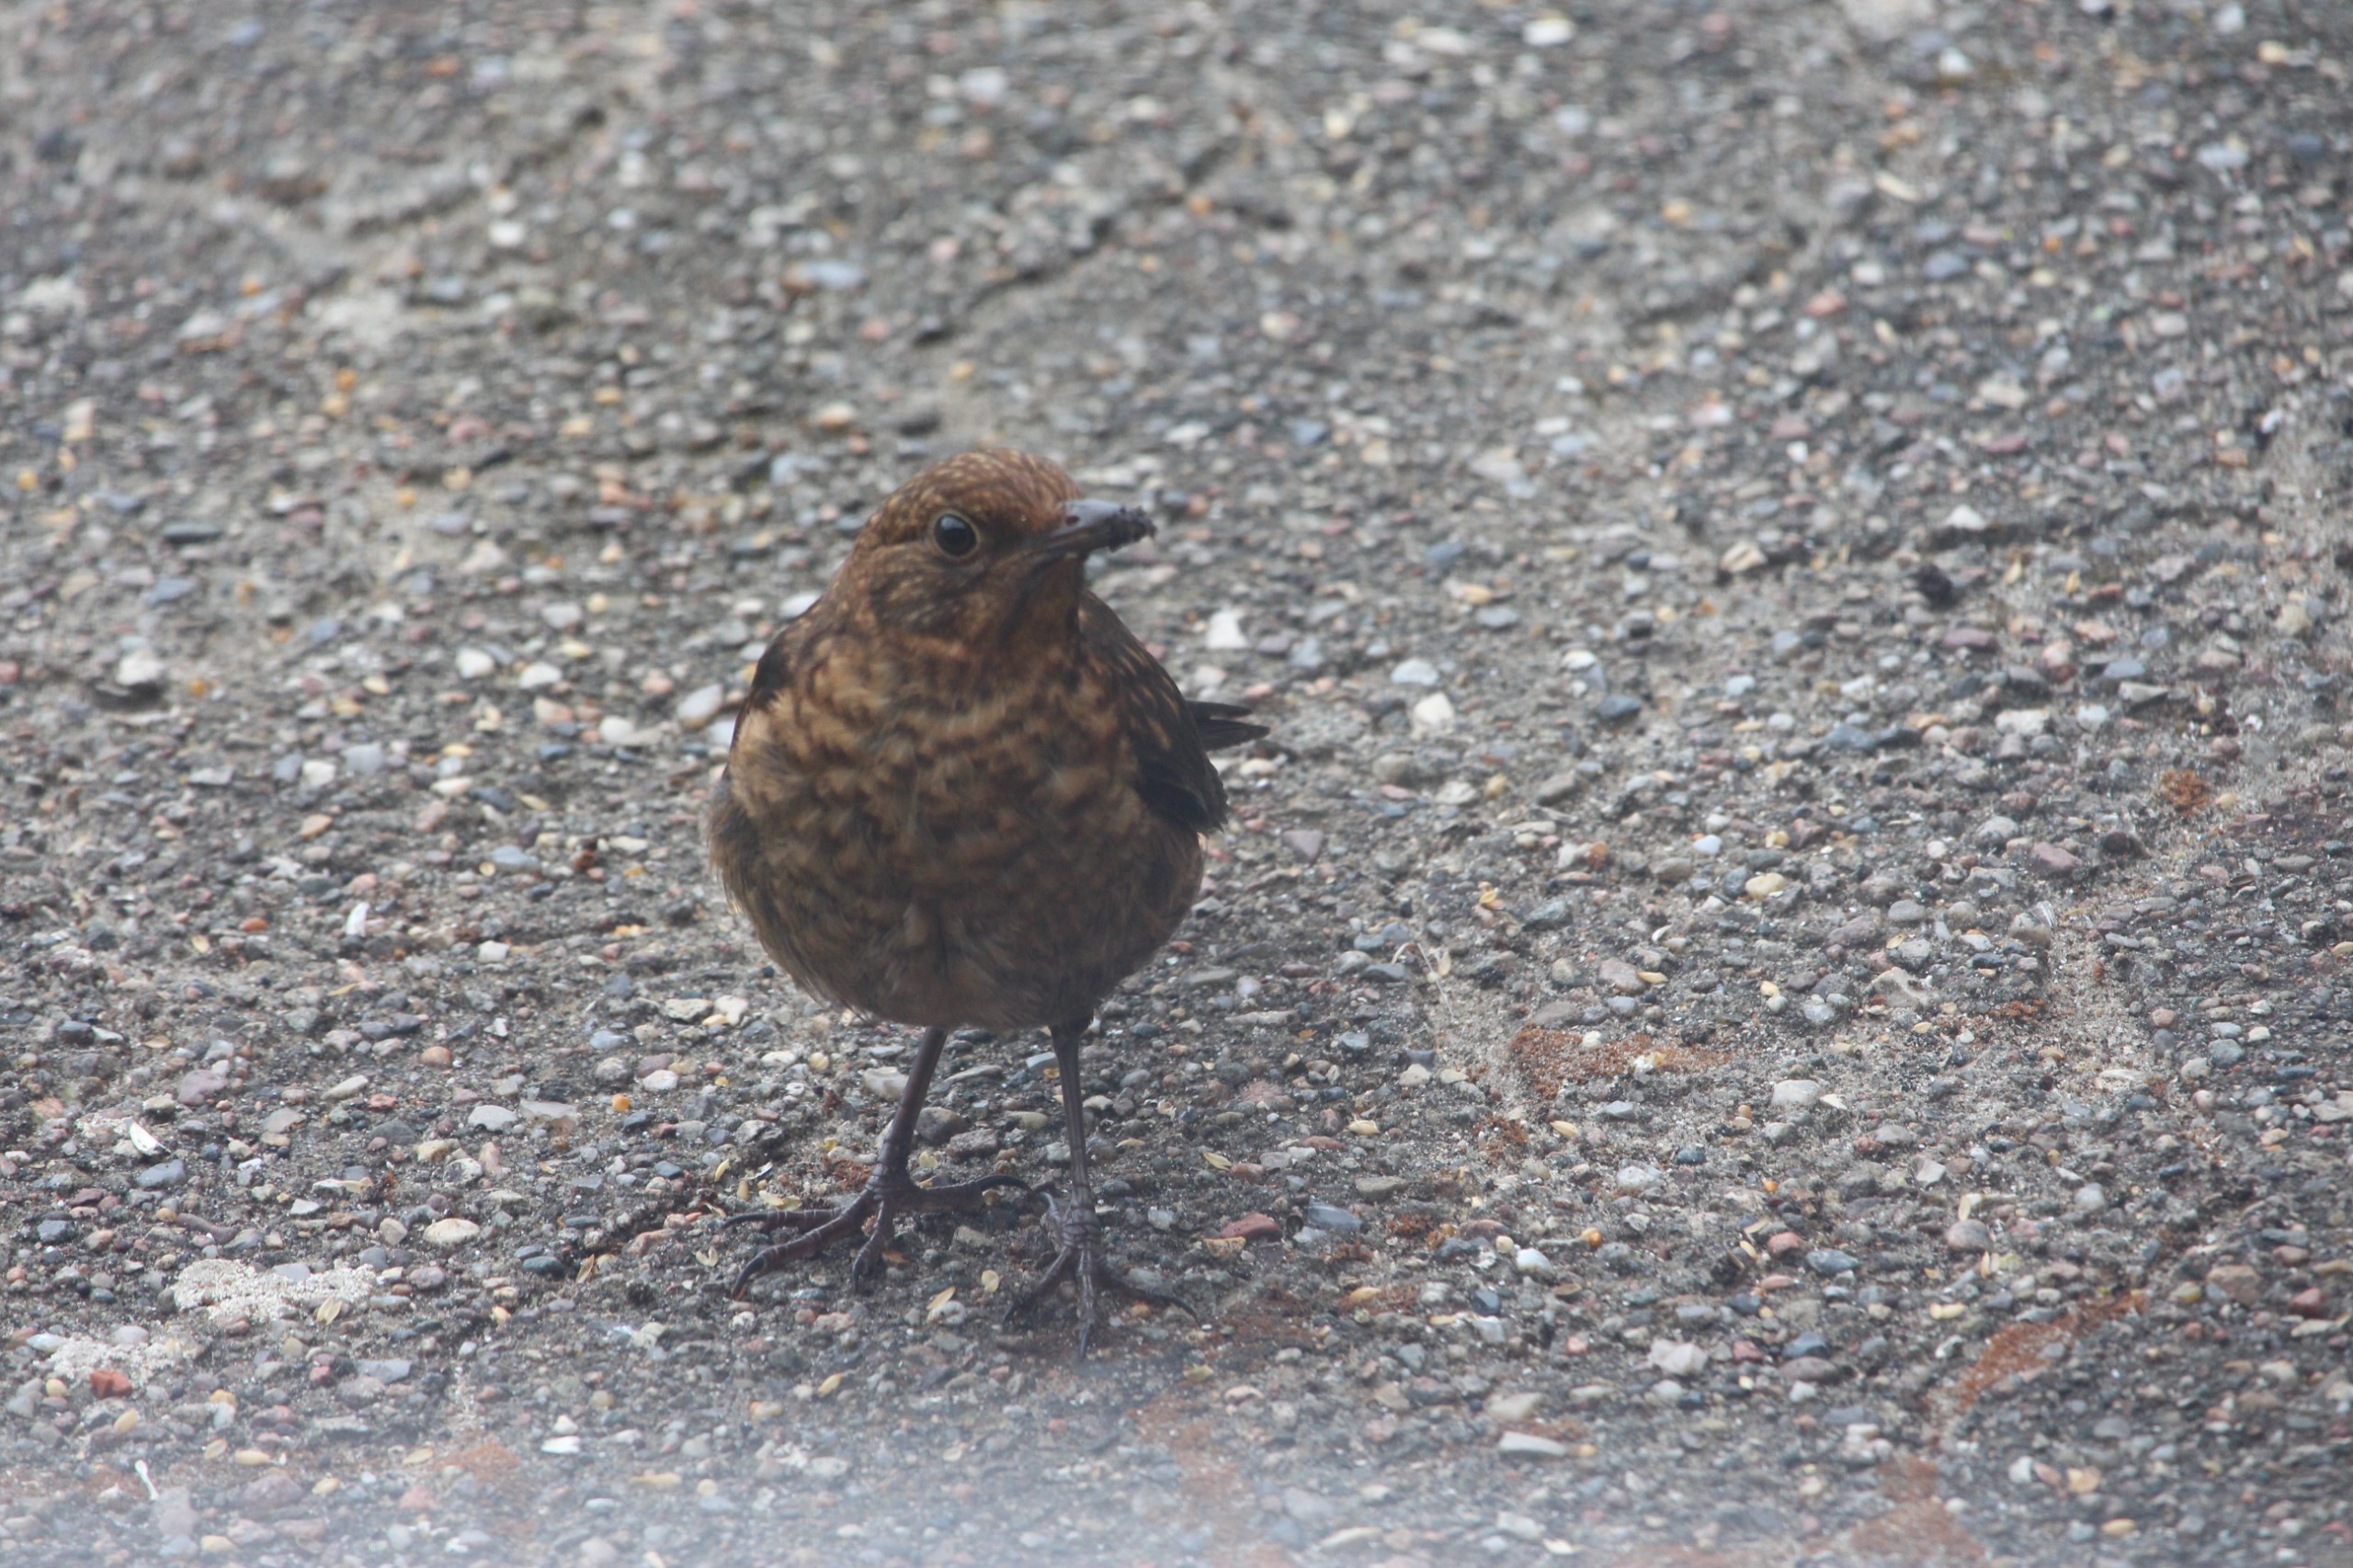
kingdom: Animalia
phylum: Chordata
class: Aves
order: Passeriformes
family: Turdidae
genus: Turdus
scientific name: Turdus merula
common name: Solsort
